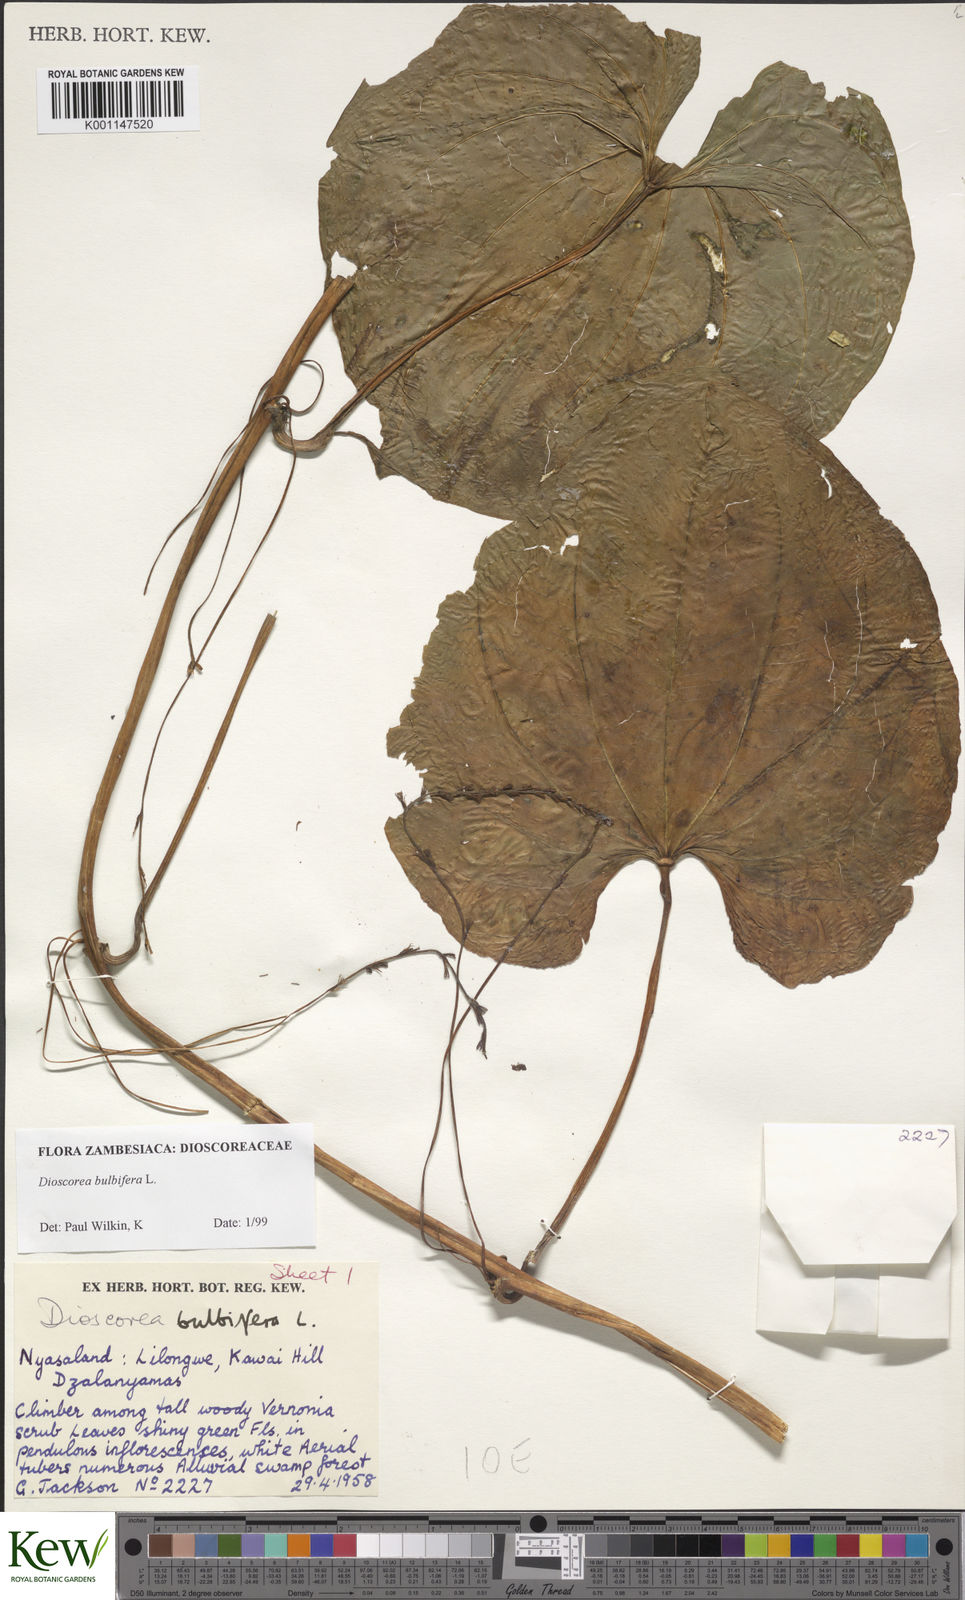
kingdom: Plantae
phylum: Tracheophyta
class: Liliopsida
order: Dioscoreales
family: Dioscoreaceae
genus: Dioscorea
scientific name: Dioscorea bulbifera
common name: Air yam
